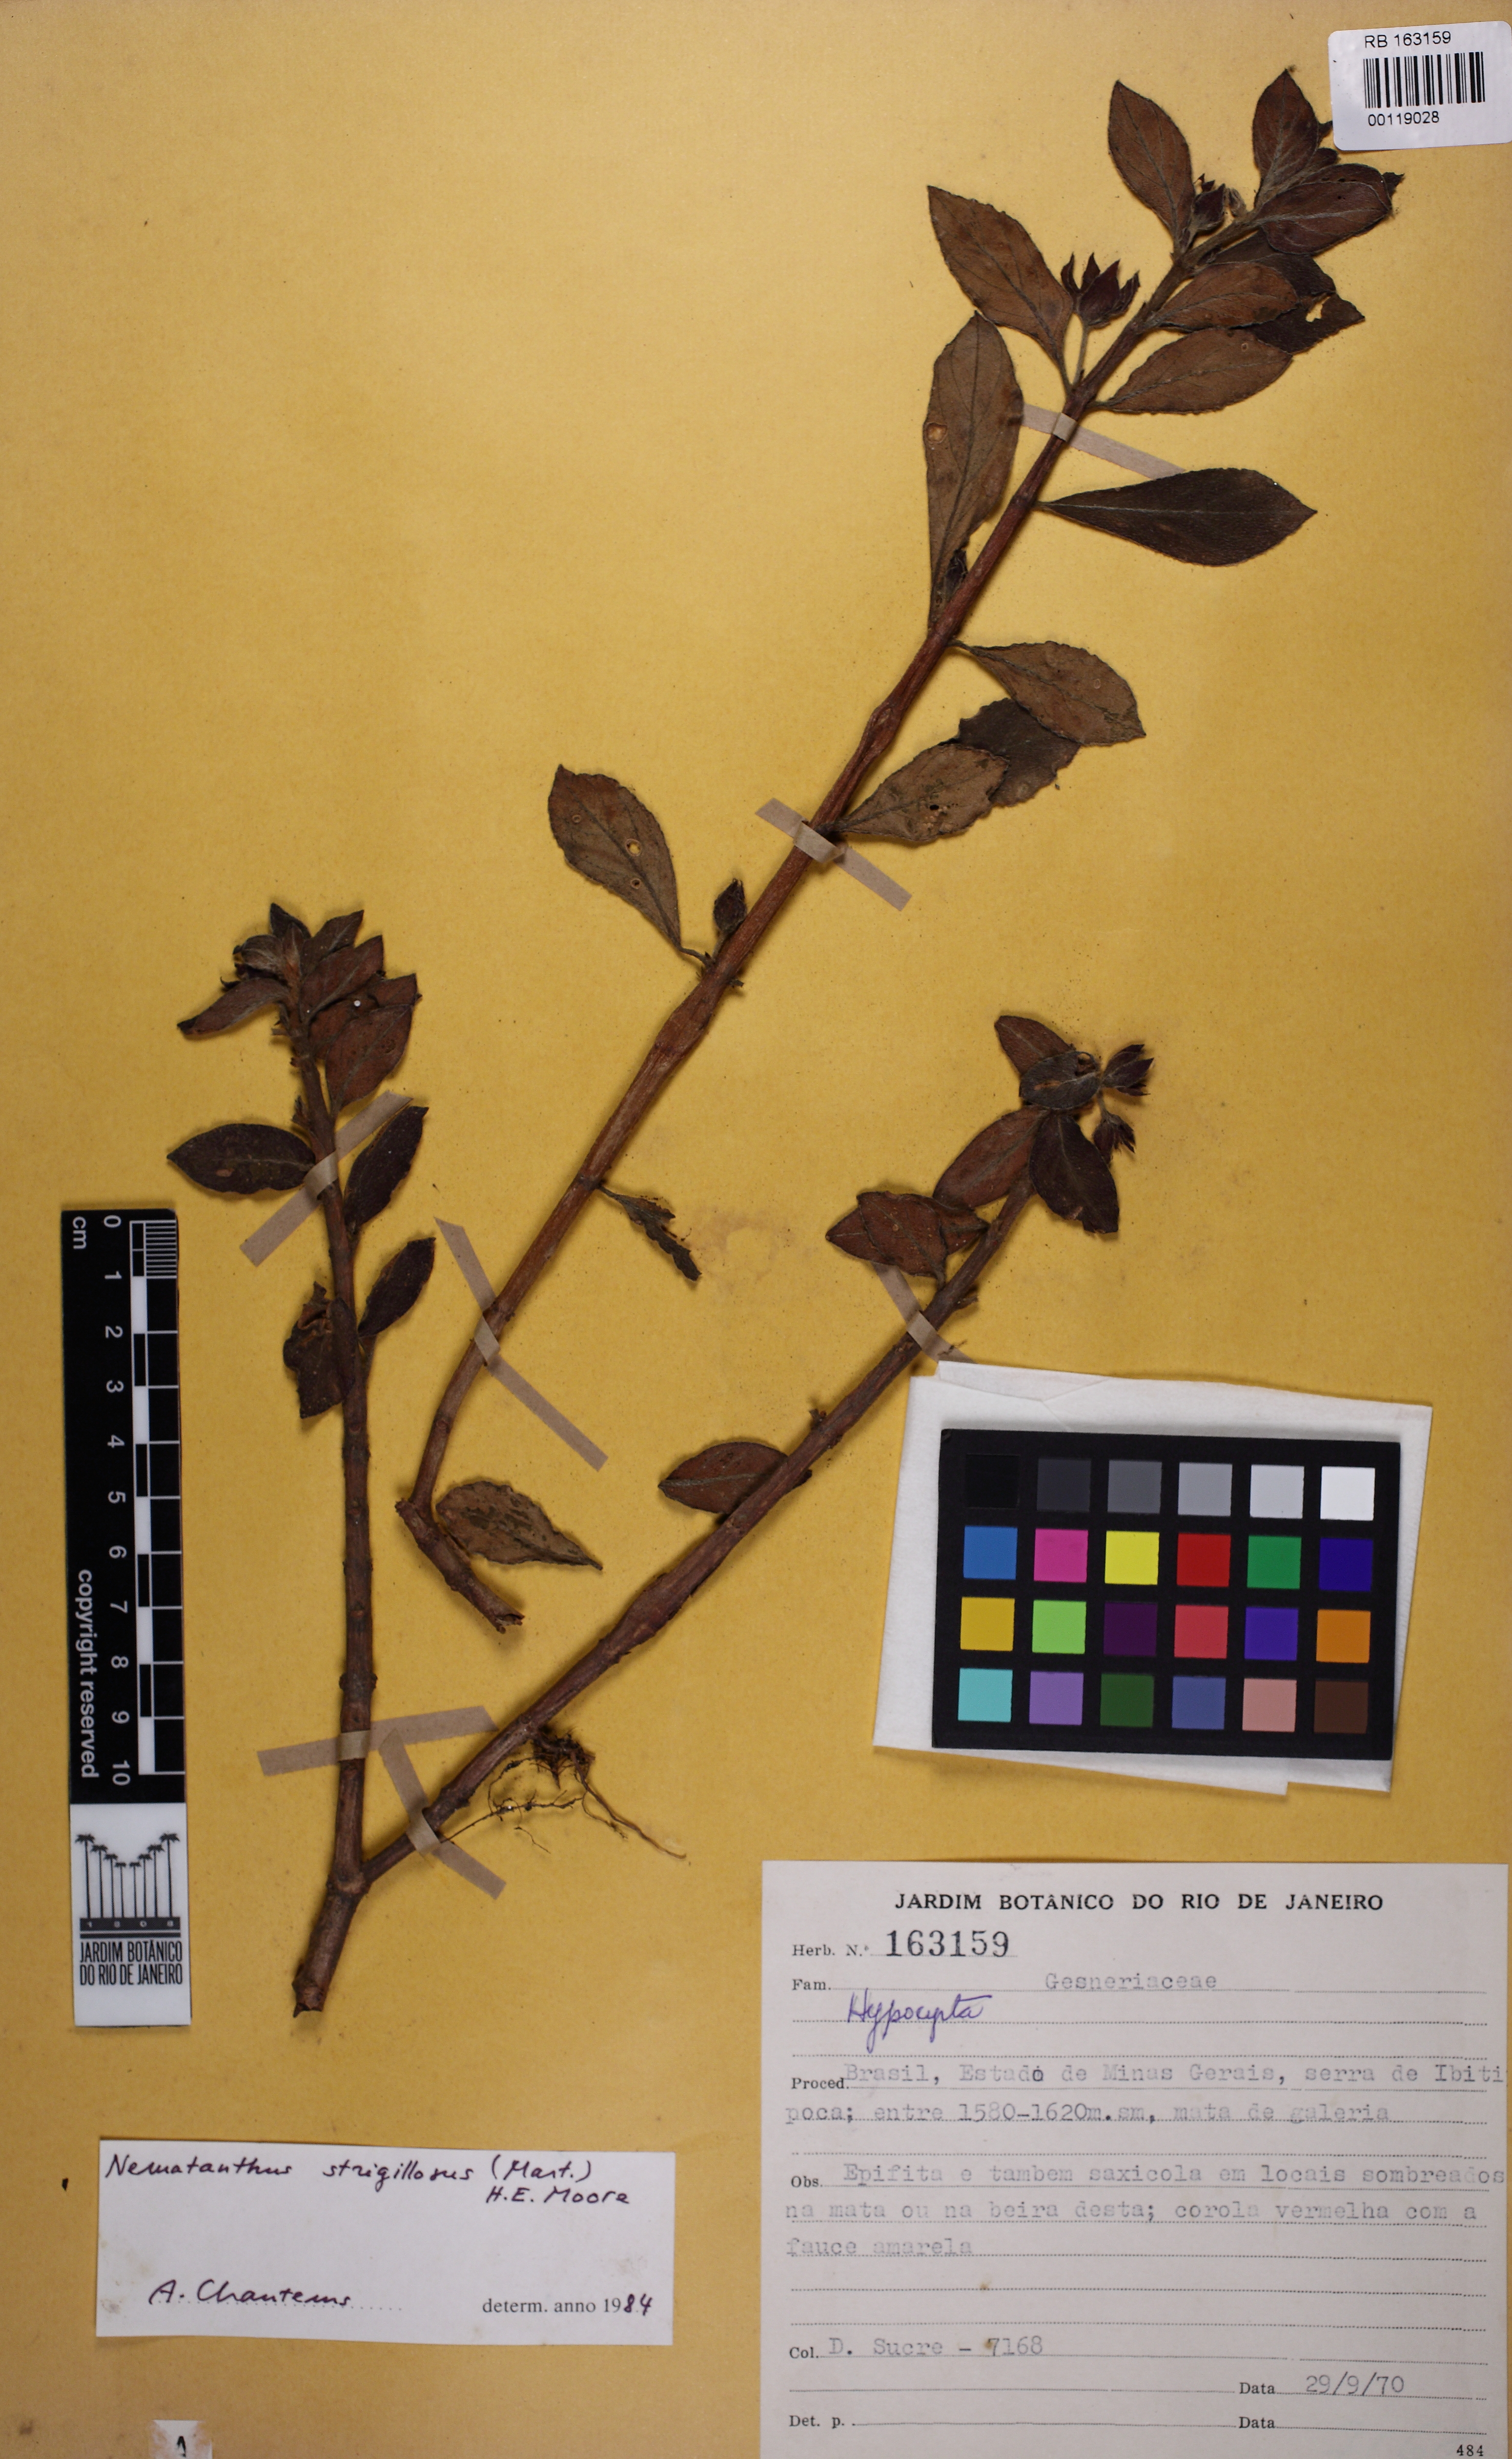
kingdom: Plantae
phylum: Tracheophyta
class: Magnoliopsida
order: Lamiales
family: Gesneriaceae
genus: Nematanthus
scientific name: Nematanthus strigillosus
